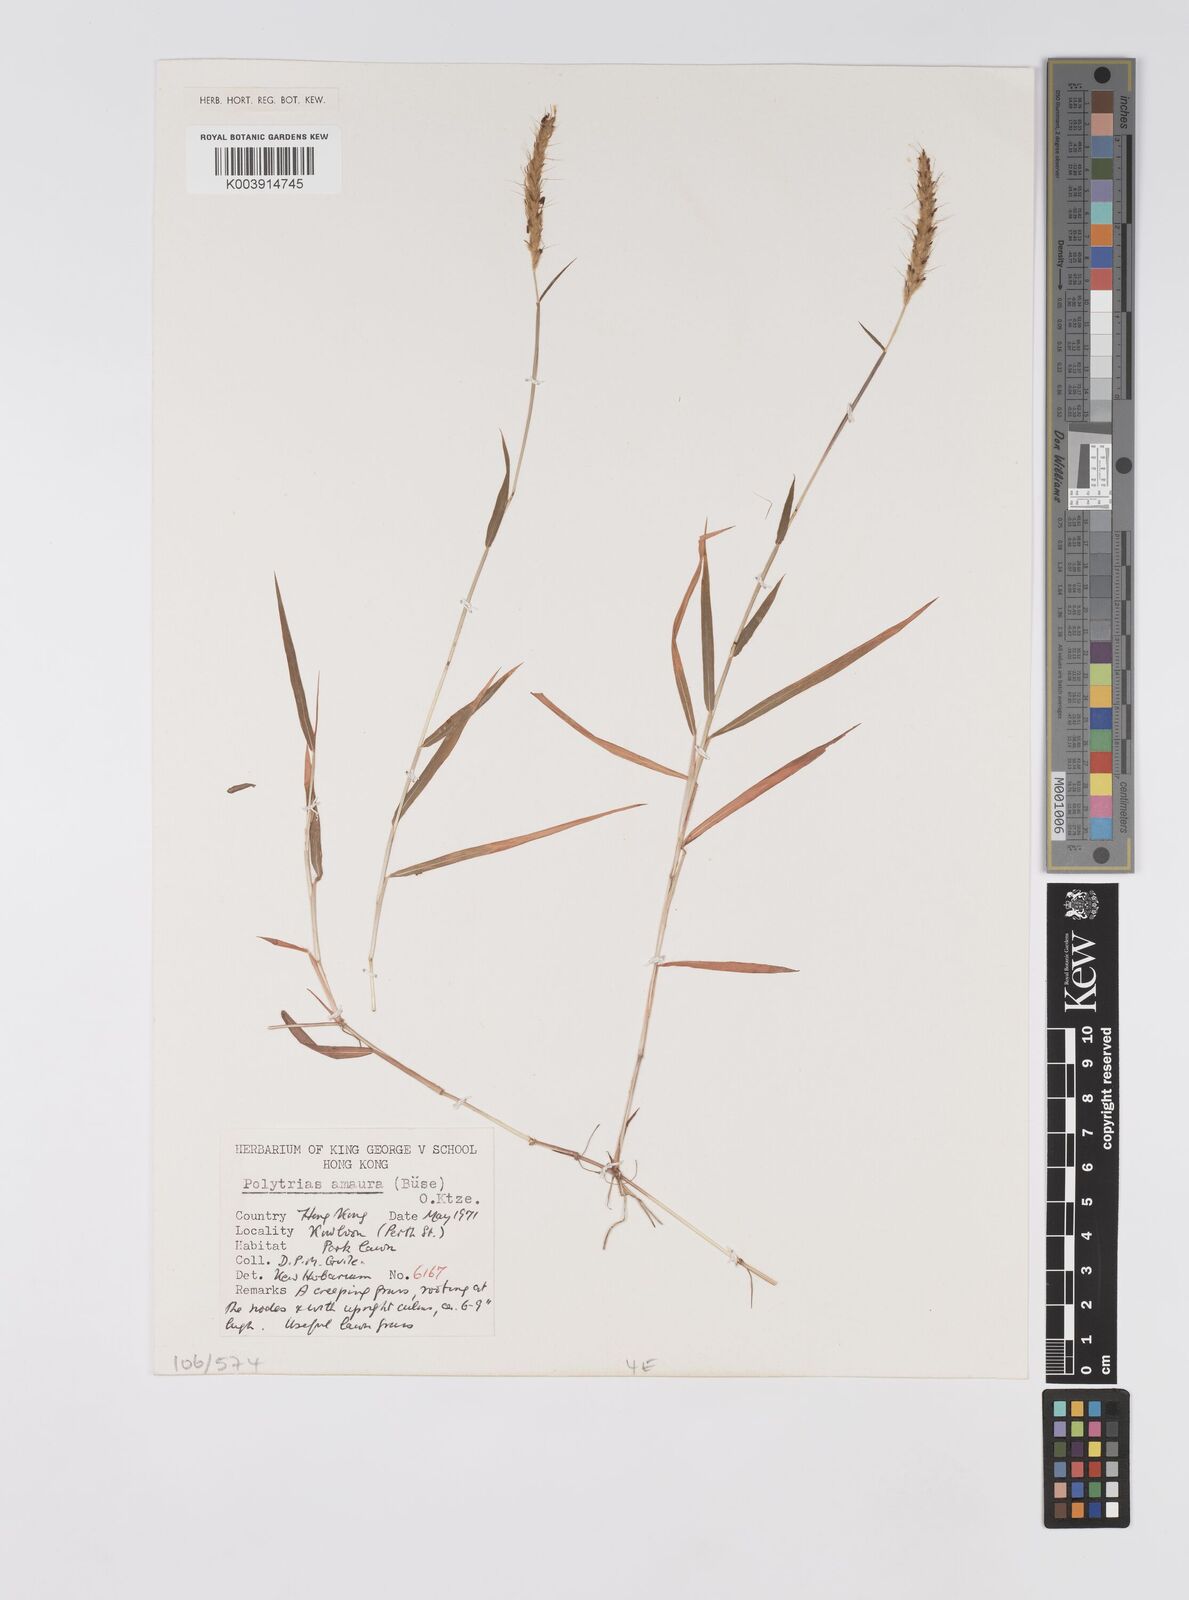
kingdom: Plantae
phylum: Tracheophyta
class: Liliopsida
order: Poales
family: Poaceae
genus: Polytrias
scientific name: Polytrias indica
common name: Indian murainagrass
